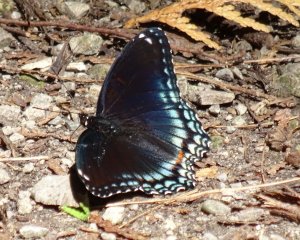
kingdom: Animalia
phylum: Arthropoda
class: Insecta
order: Lepidoptera
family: Nymphalidae
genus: Limenitis
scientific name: Limenitis astyanax
